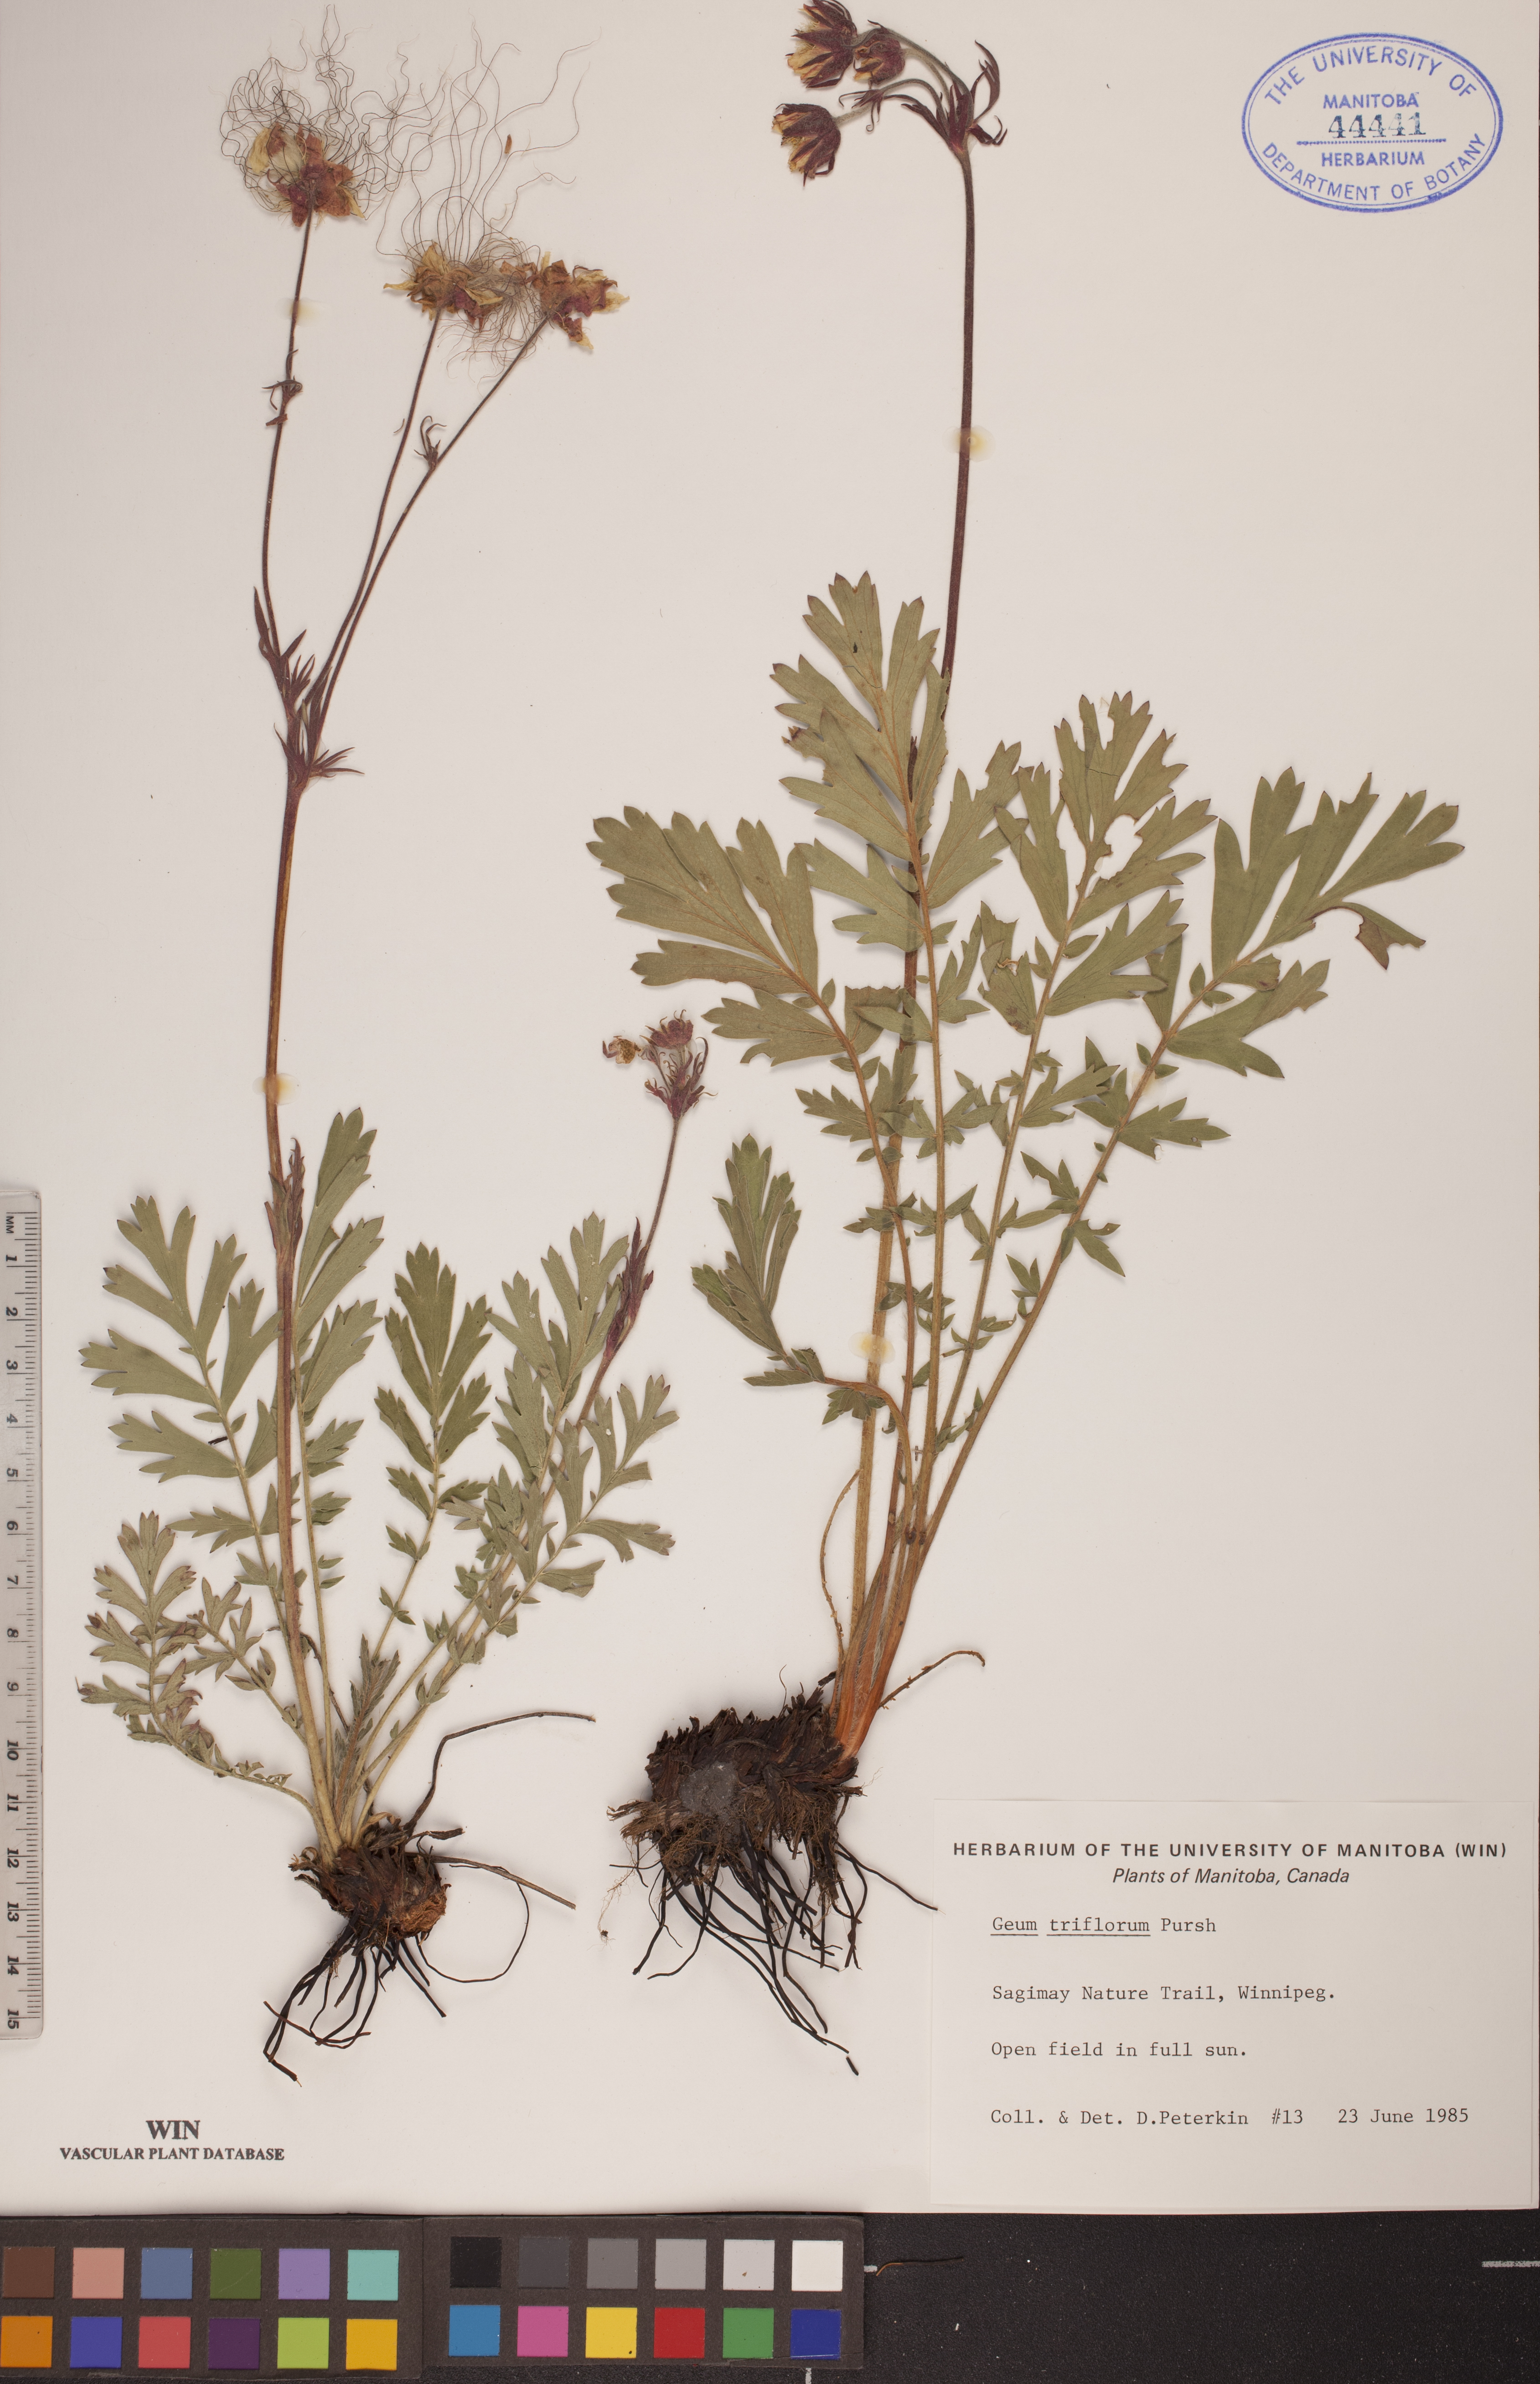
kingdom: Plantae
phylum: Tracheophyta
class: Magnoliopsida
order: Rosales
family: Rosaceae
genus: Geum
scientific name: Geum triflorum
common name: Old man's whiskers
